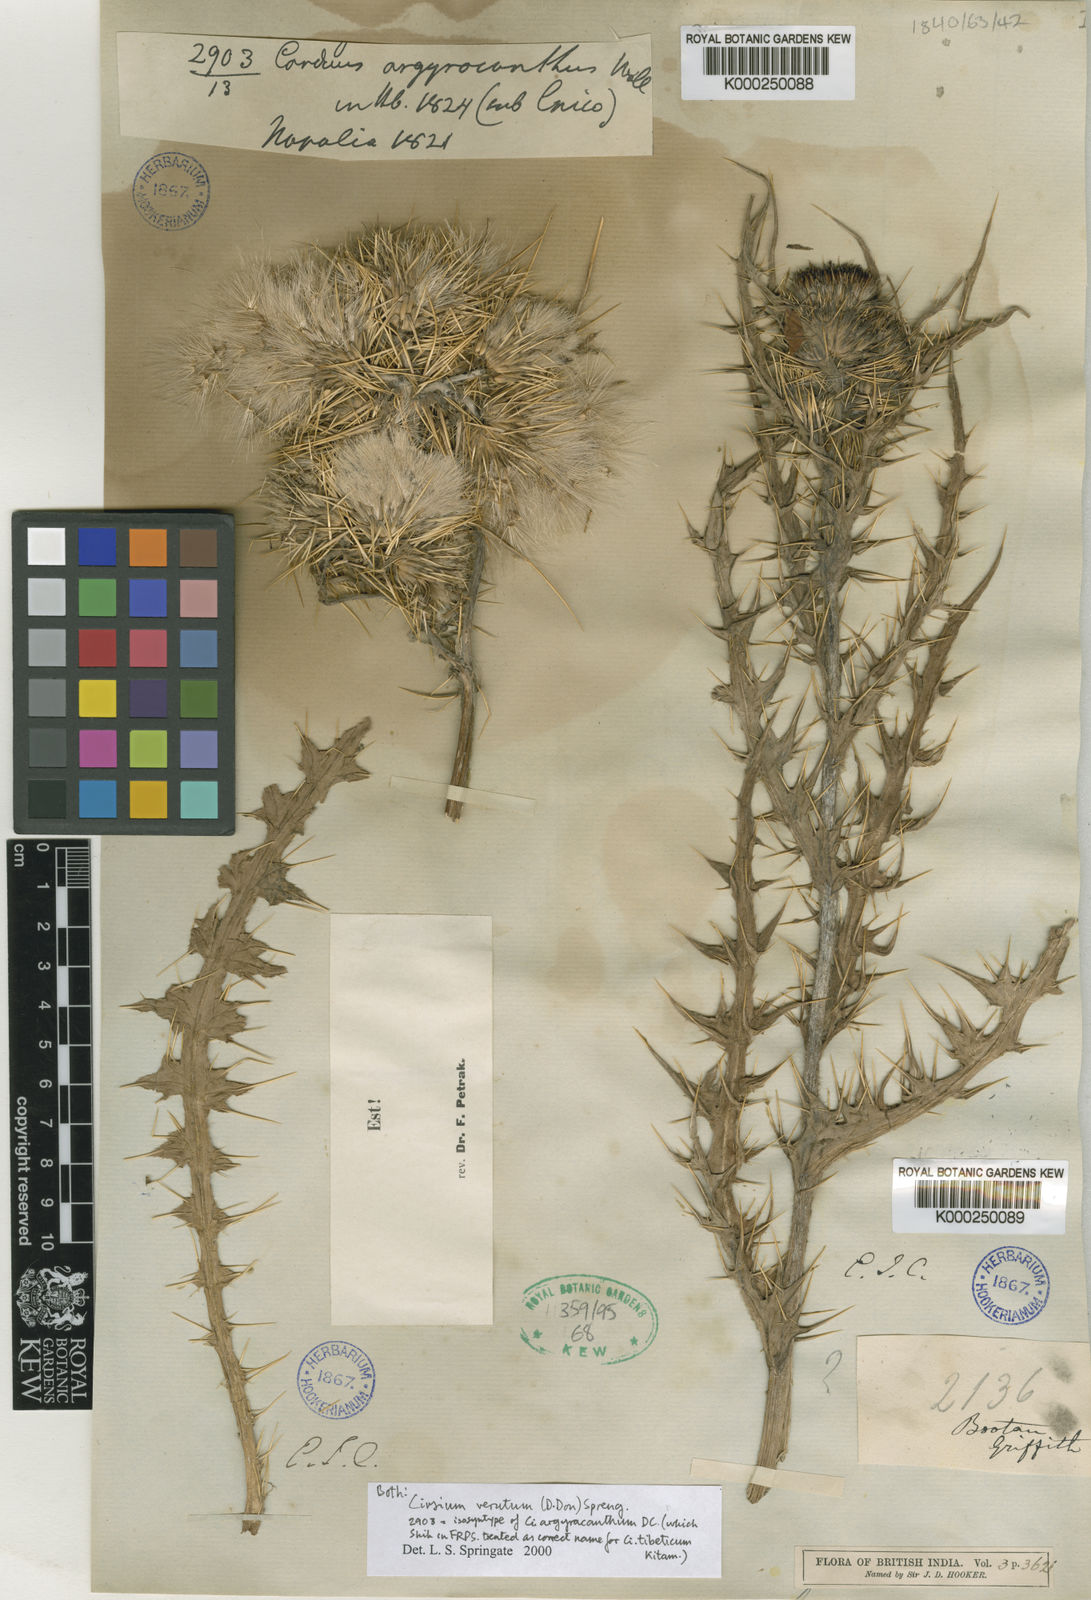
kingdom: Plantae
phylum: Tracheophyta
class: Magnoliopsida
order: Asterales
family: Asteraceae
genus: Cirsium
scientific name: Cirsium argyracanthum
